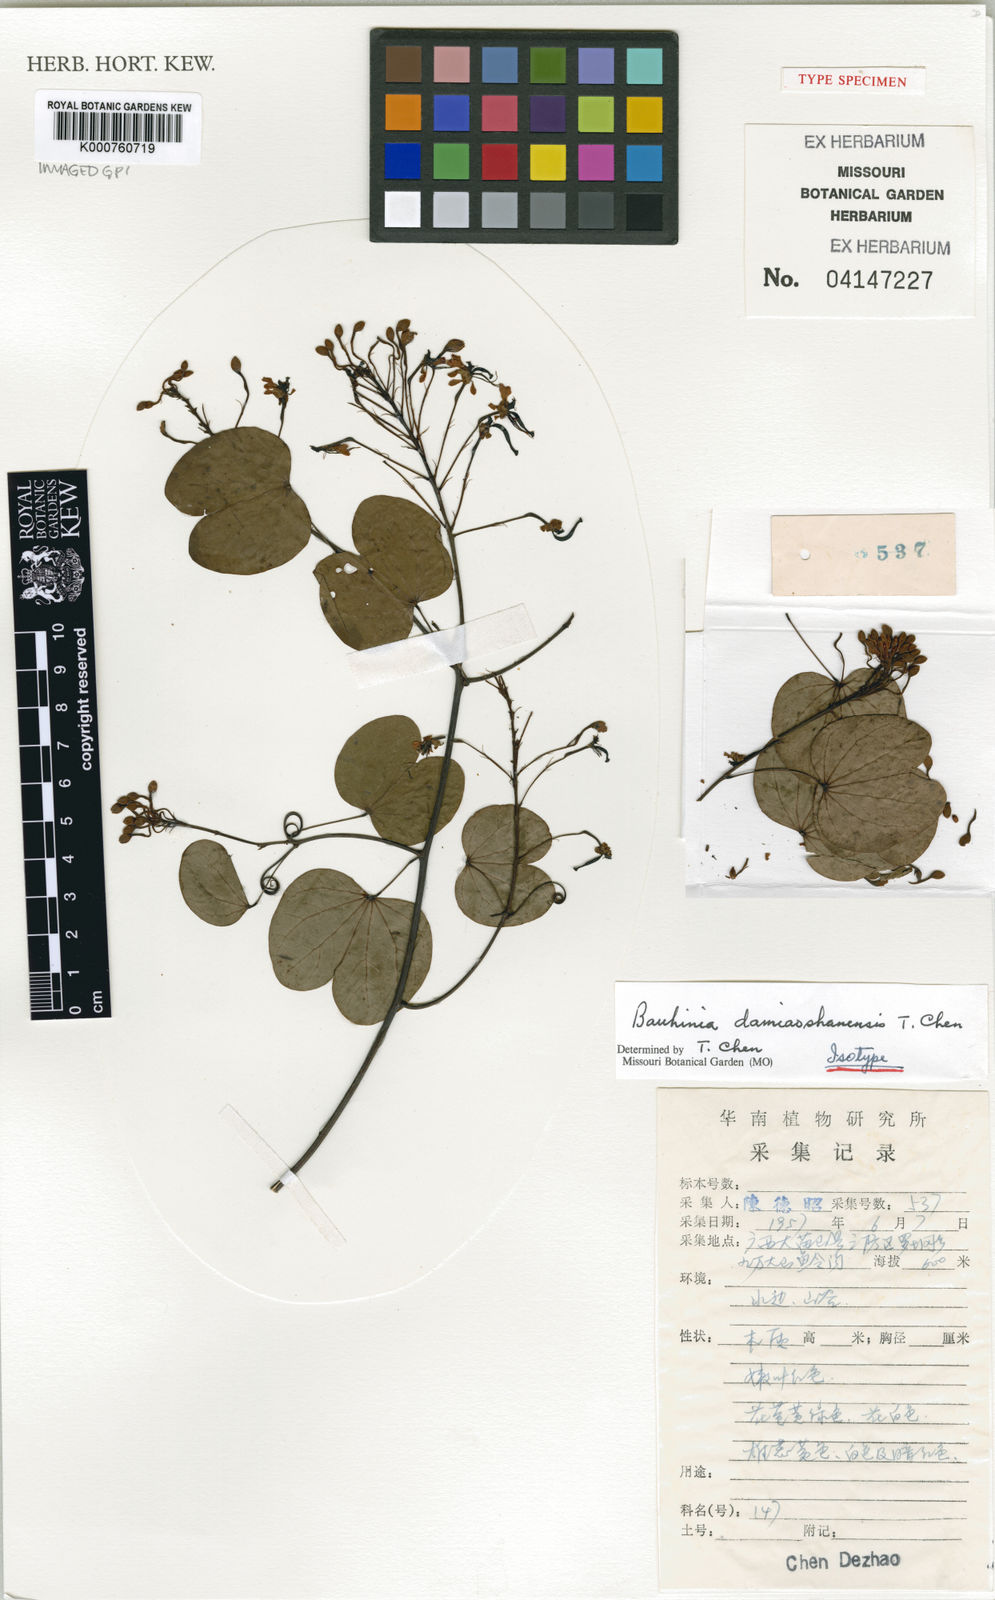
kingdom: Plantae
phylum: Tracheophyta
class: Magnoliopsida
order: Fabales
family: Fabaceae
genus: Cheniella
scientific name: Cheniella damiaoshanensis
